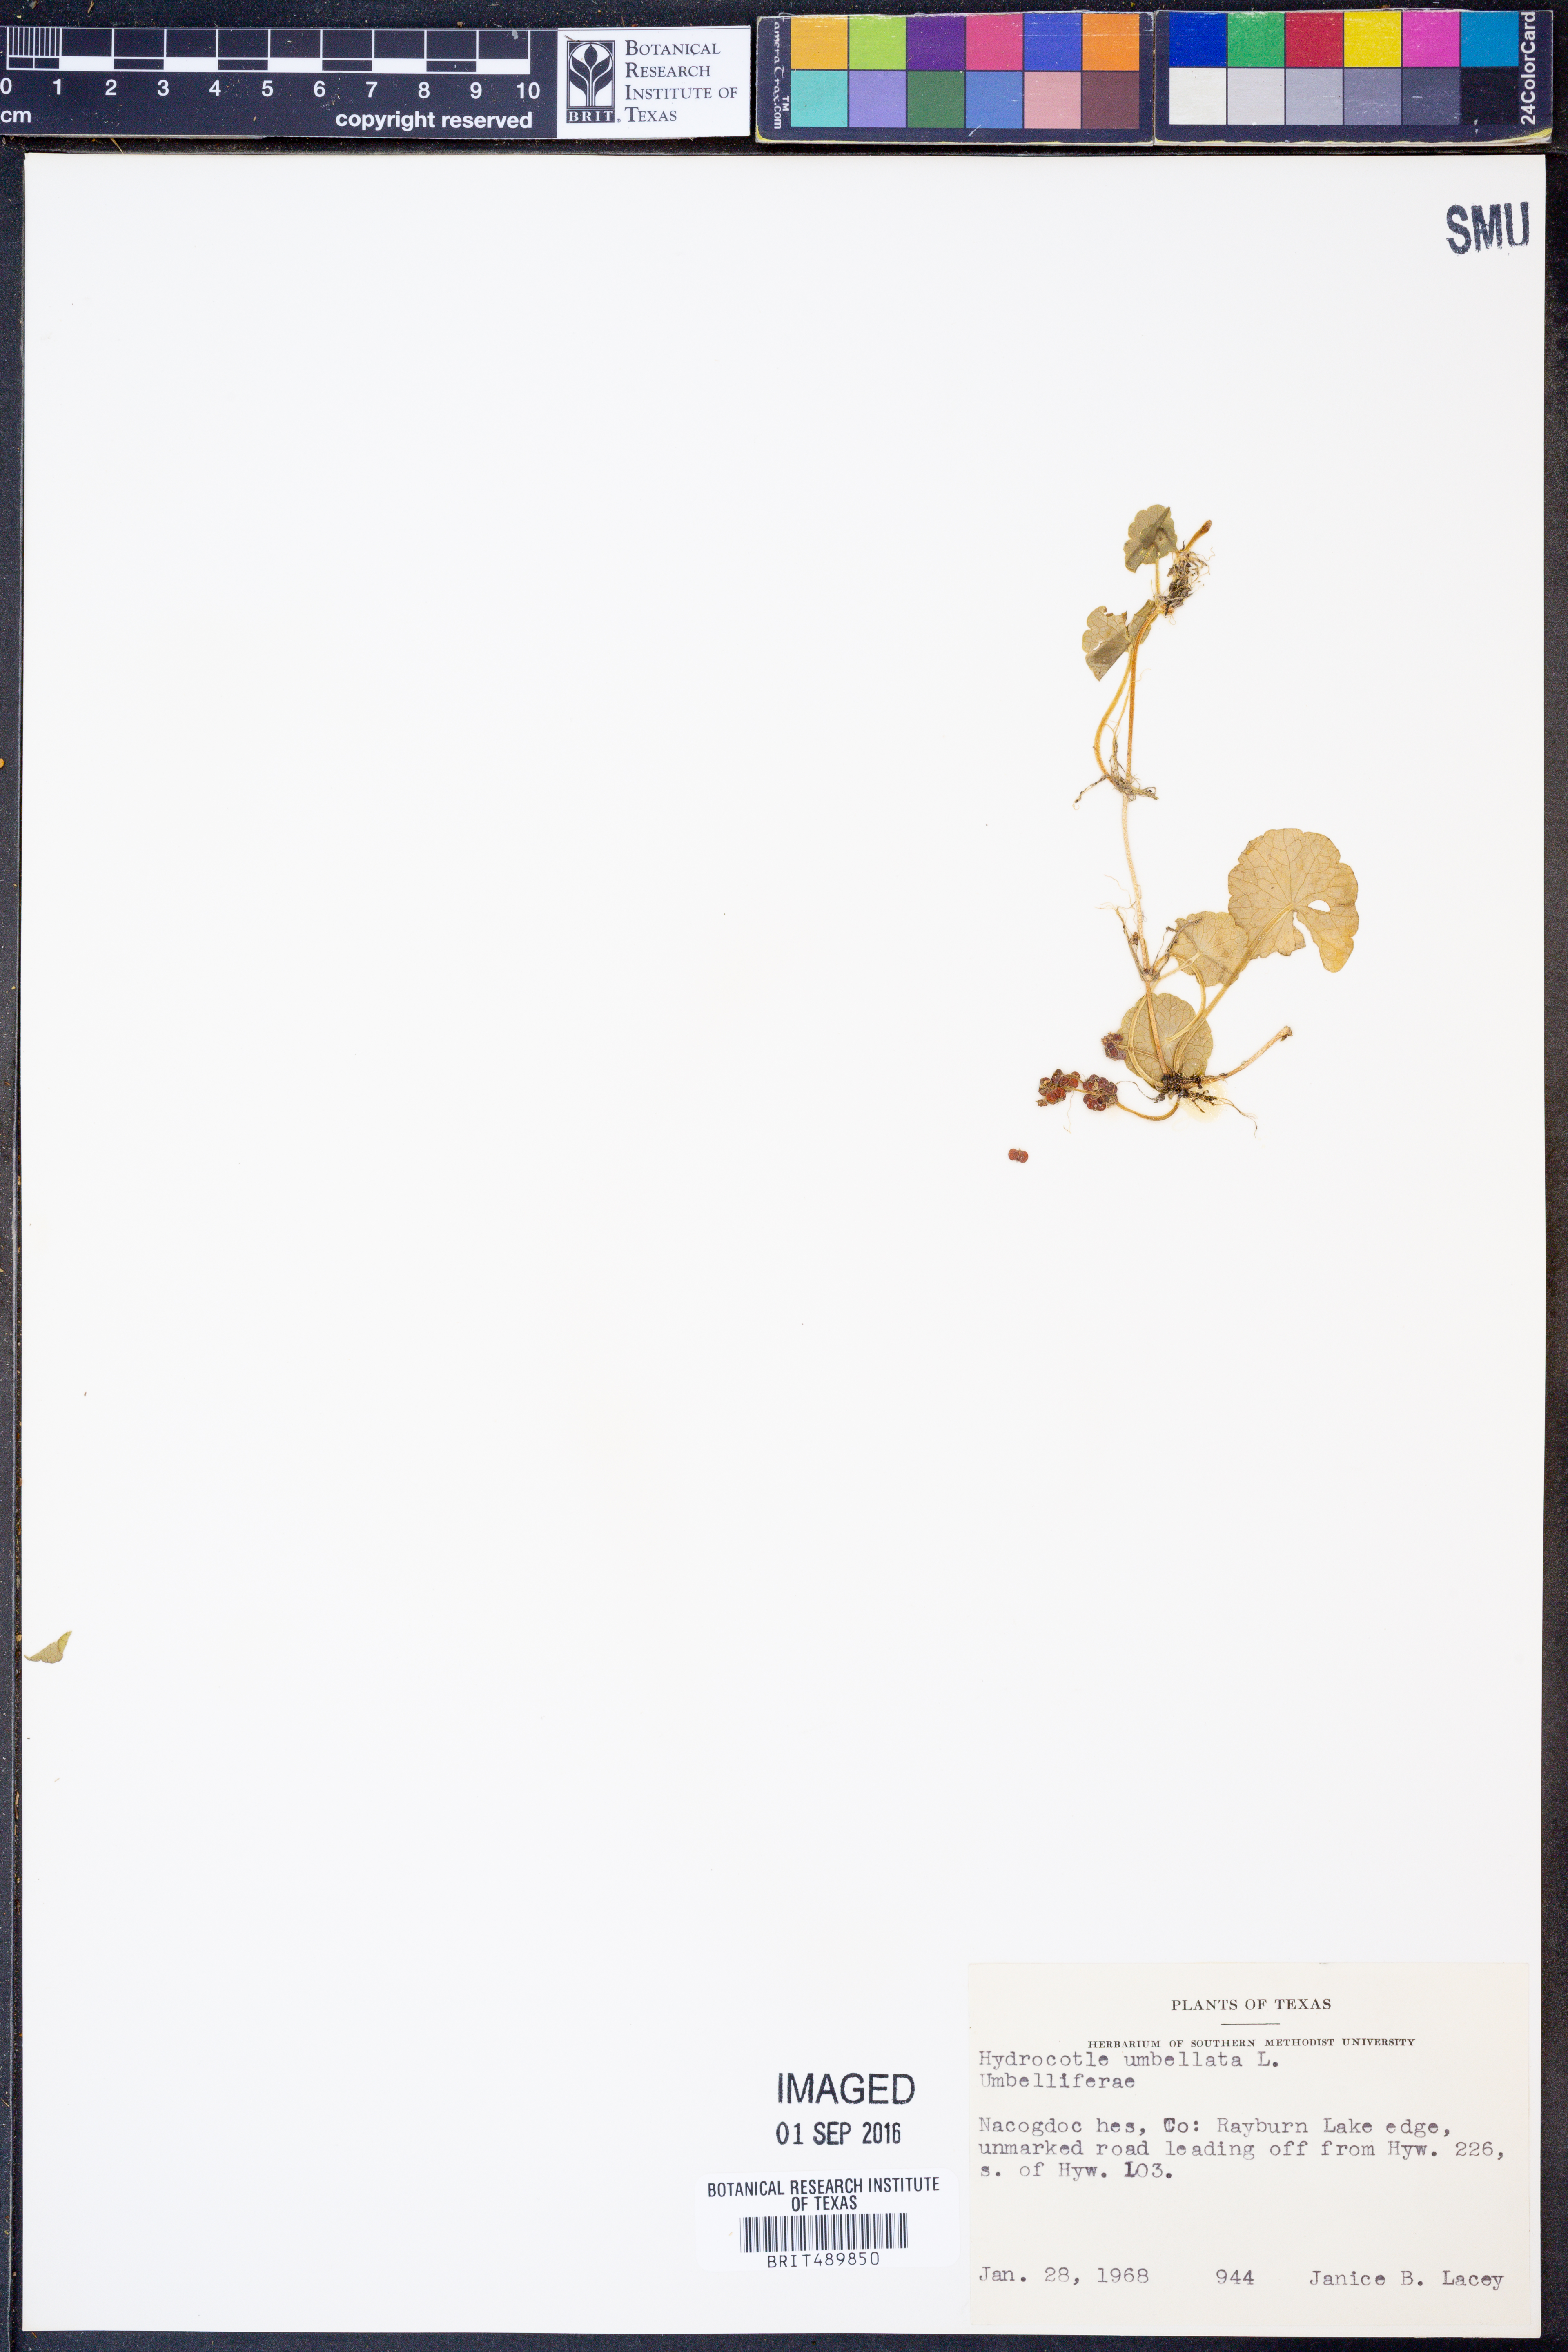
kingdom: Plantae
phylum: Tracheophyta
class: Magnoliopsida
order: Apiales
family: Araliaceae
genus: Hydrocotyle
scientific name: Hydrocotyle umbellata
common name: Water pennywort
